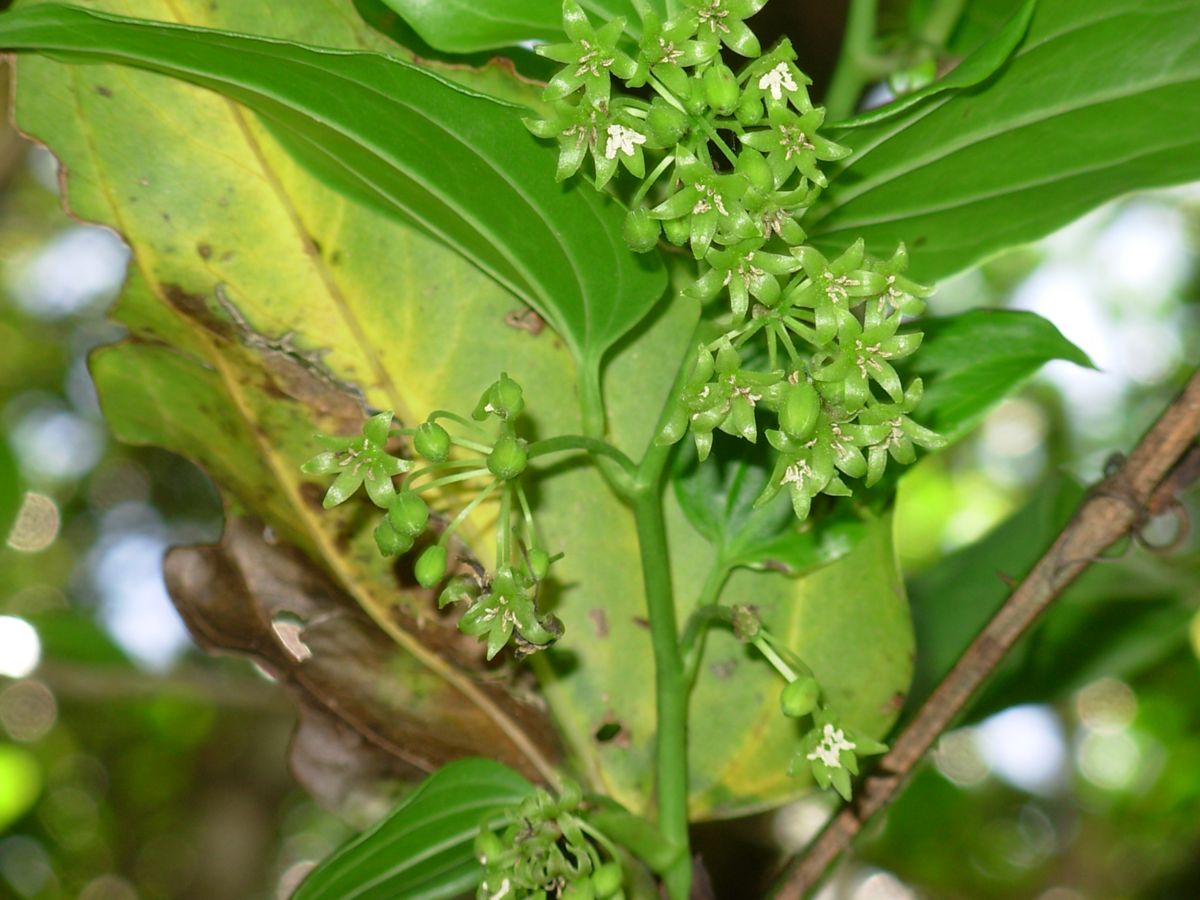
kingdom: Plantae
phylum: Tracheophyta
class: Liliopsida
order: Liliales
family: Smilacaceae
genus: Smilax
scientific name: Smilax moranensis
